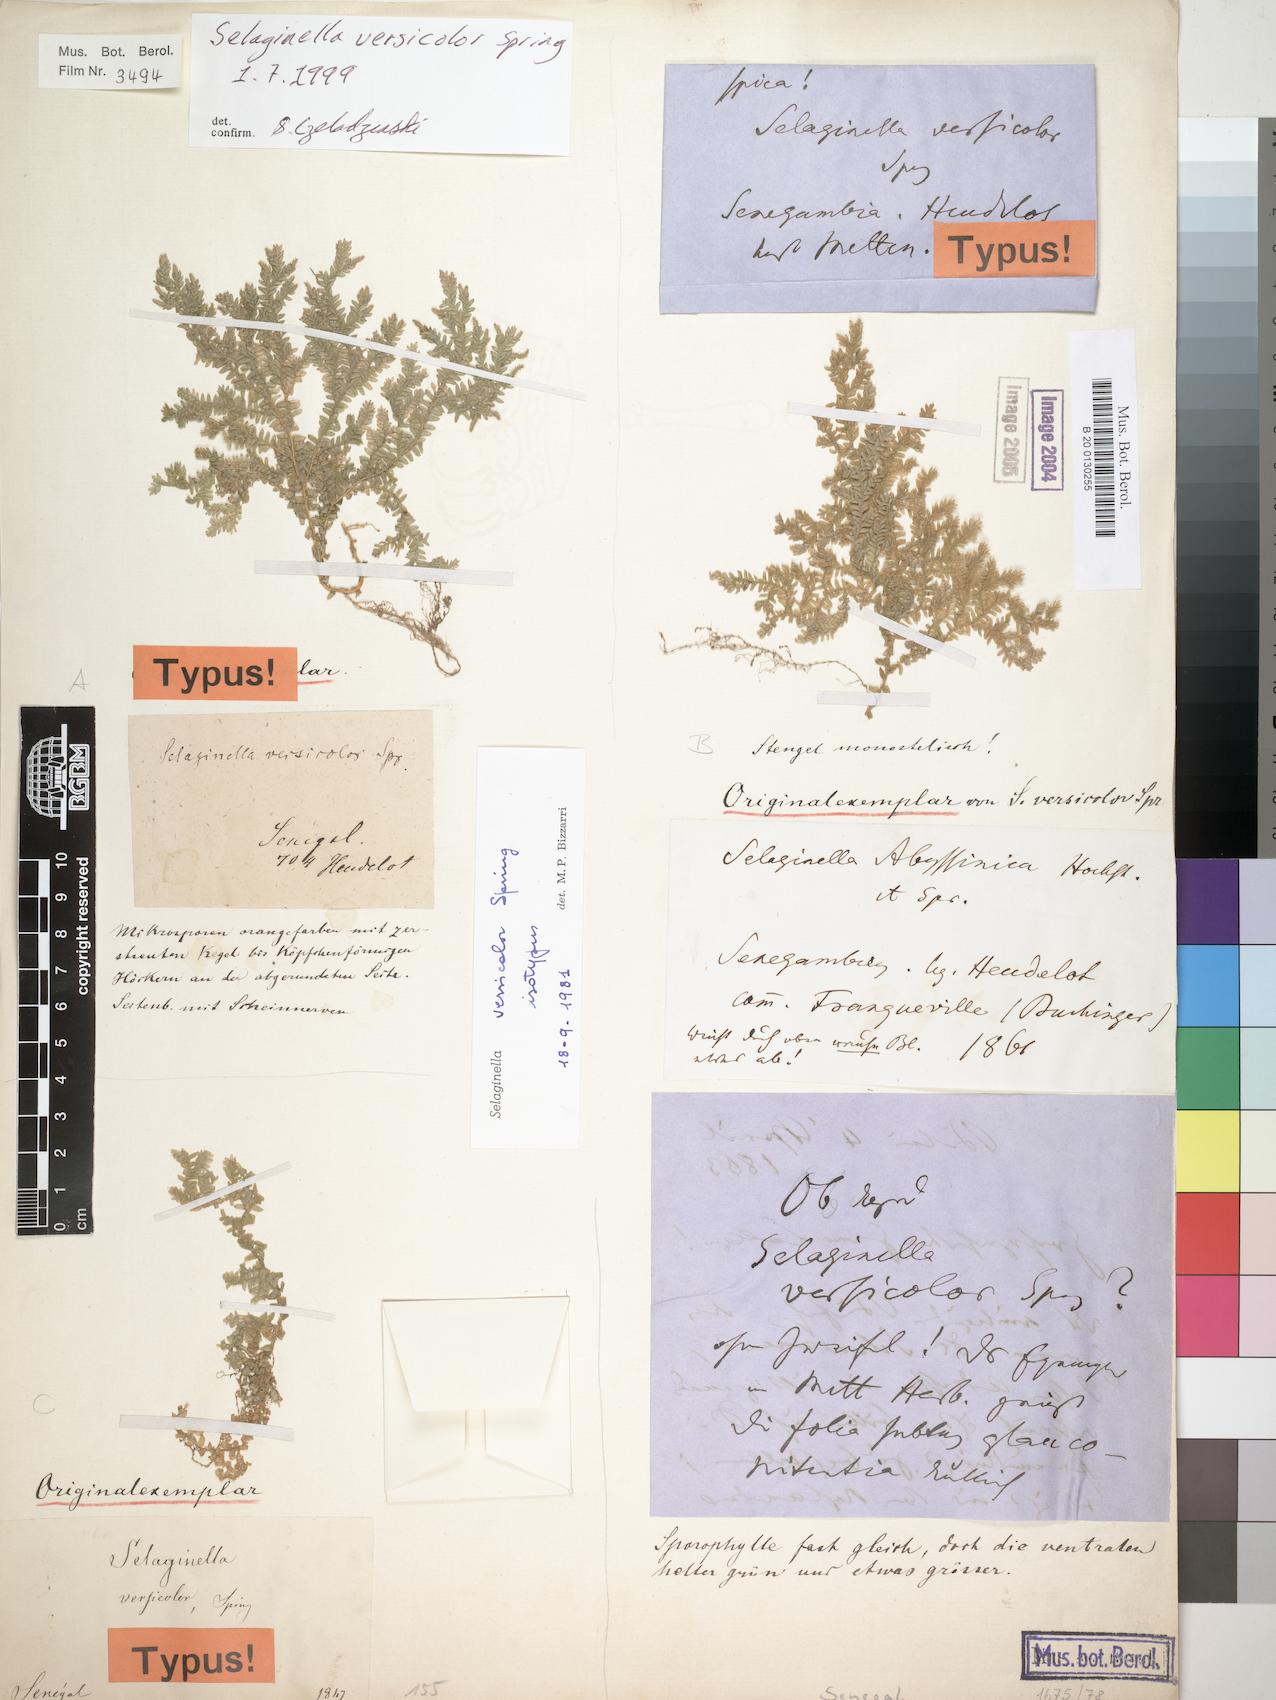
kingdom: Plantae
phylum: Tracheophyta
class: Lycopodiopsida
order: Selaginellales
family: Selaginellaceae
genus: Selaginella
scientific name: Selaginella versicolor
